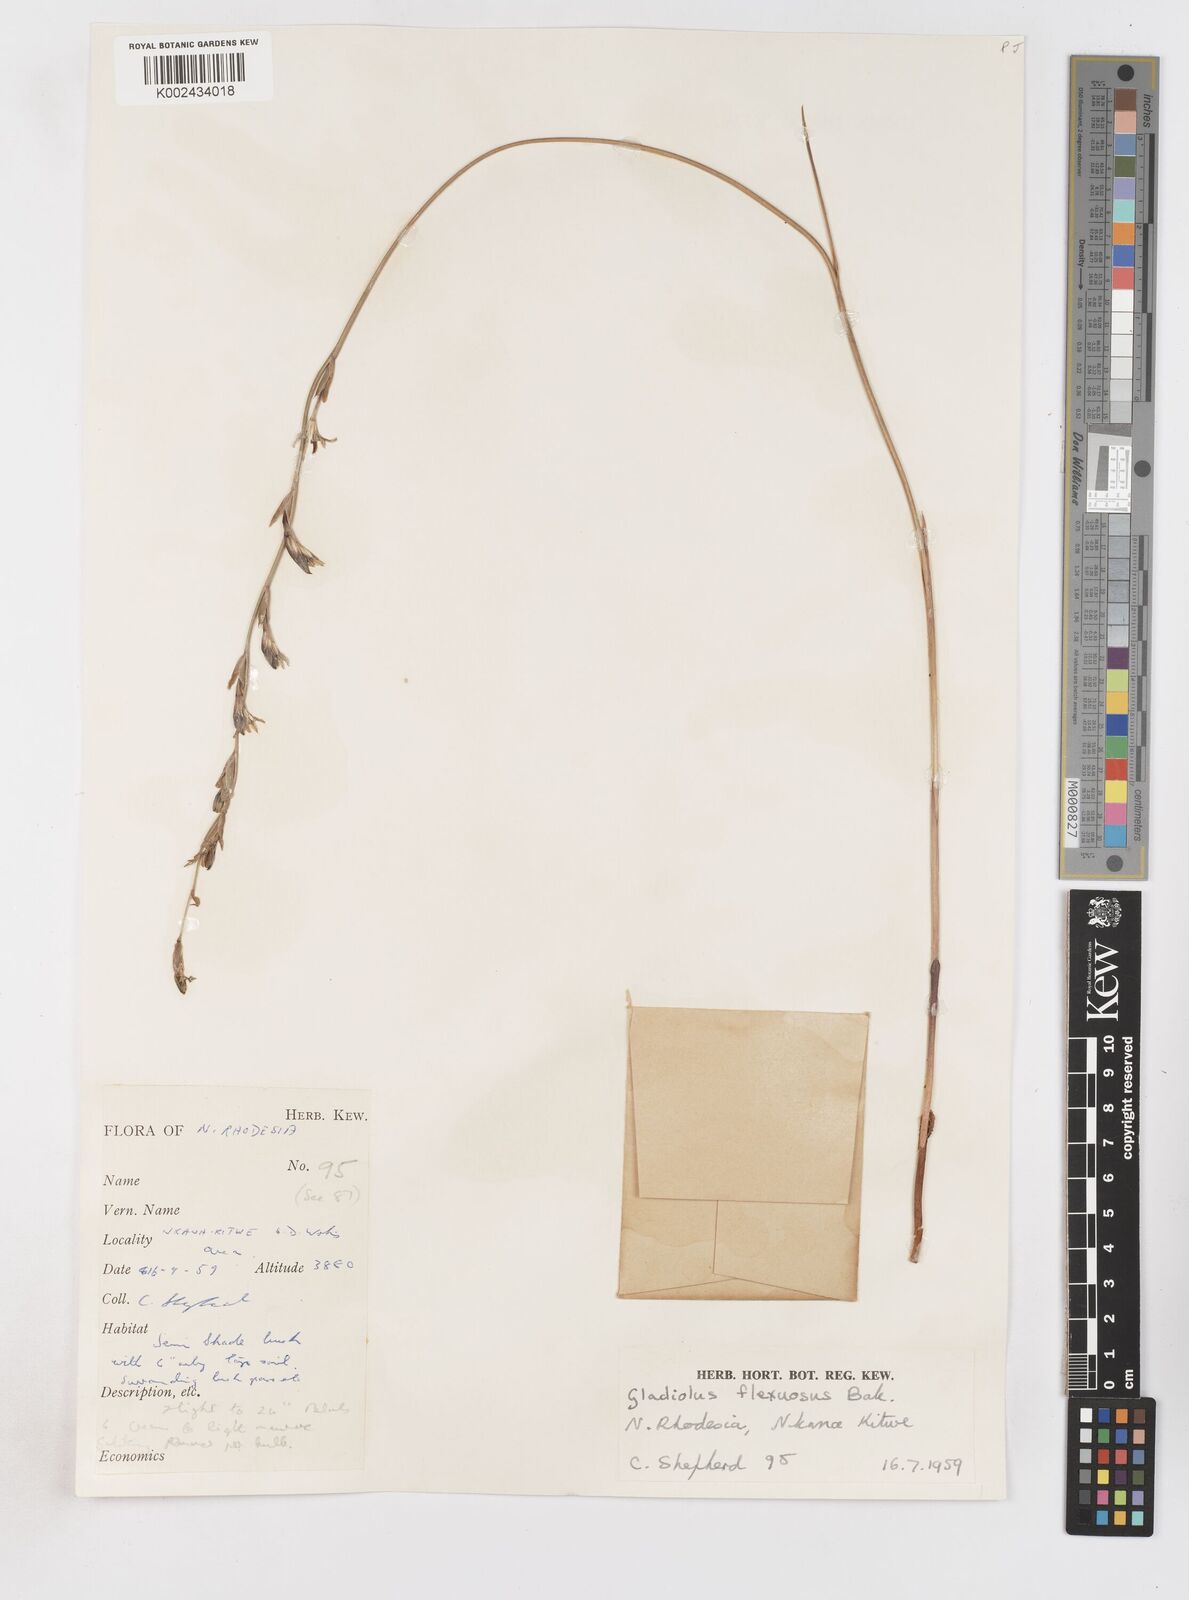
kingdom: Plantae
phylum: Tracheophyta
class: Liliopsida
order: Asparagales
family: Iridaceae
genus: Gladiolus
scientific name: Gladiolus atropurpureus
